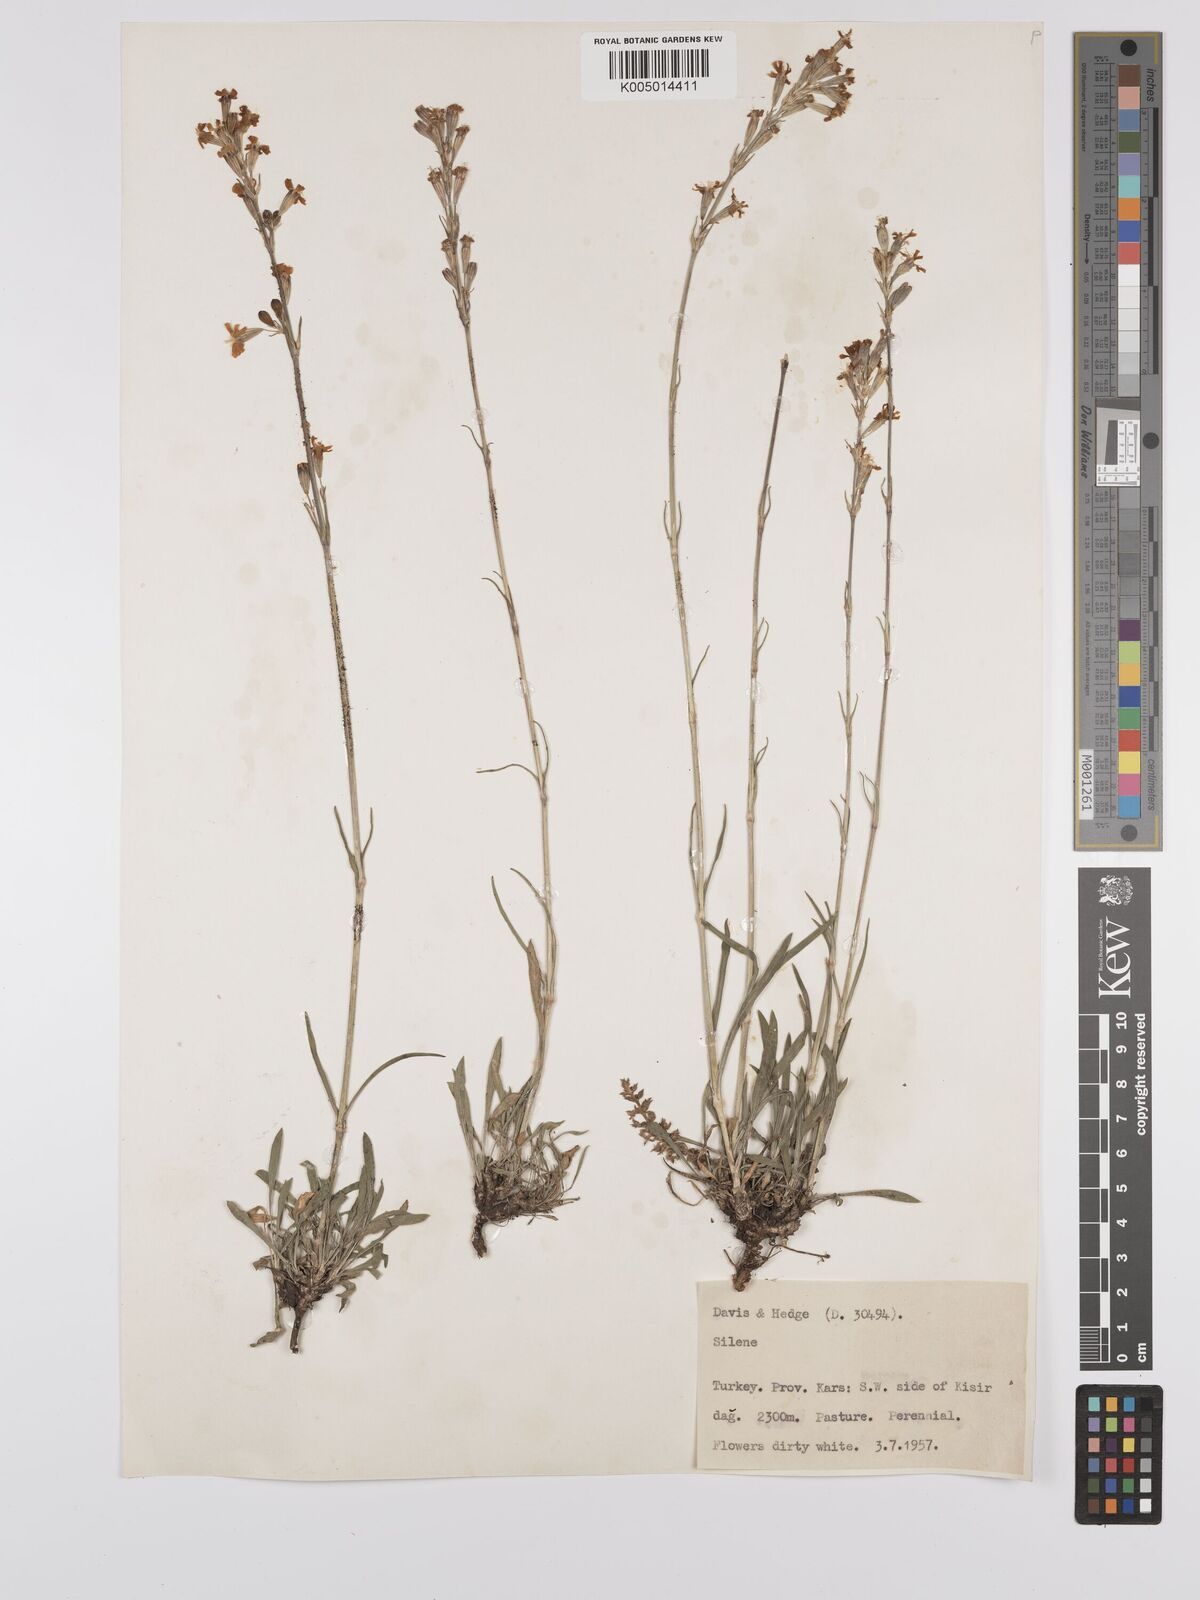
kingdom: Plantae
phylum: Tracheophyta
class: Magnoliopsida
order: Caryophyllales
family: Caryophyllaceae
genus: Silene
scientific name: Silene
